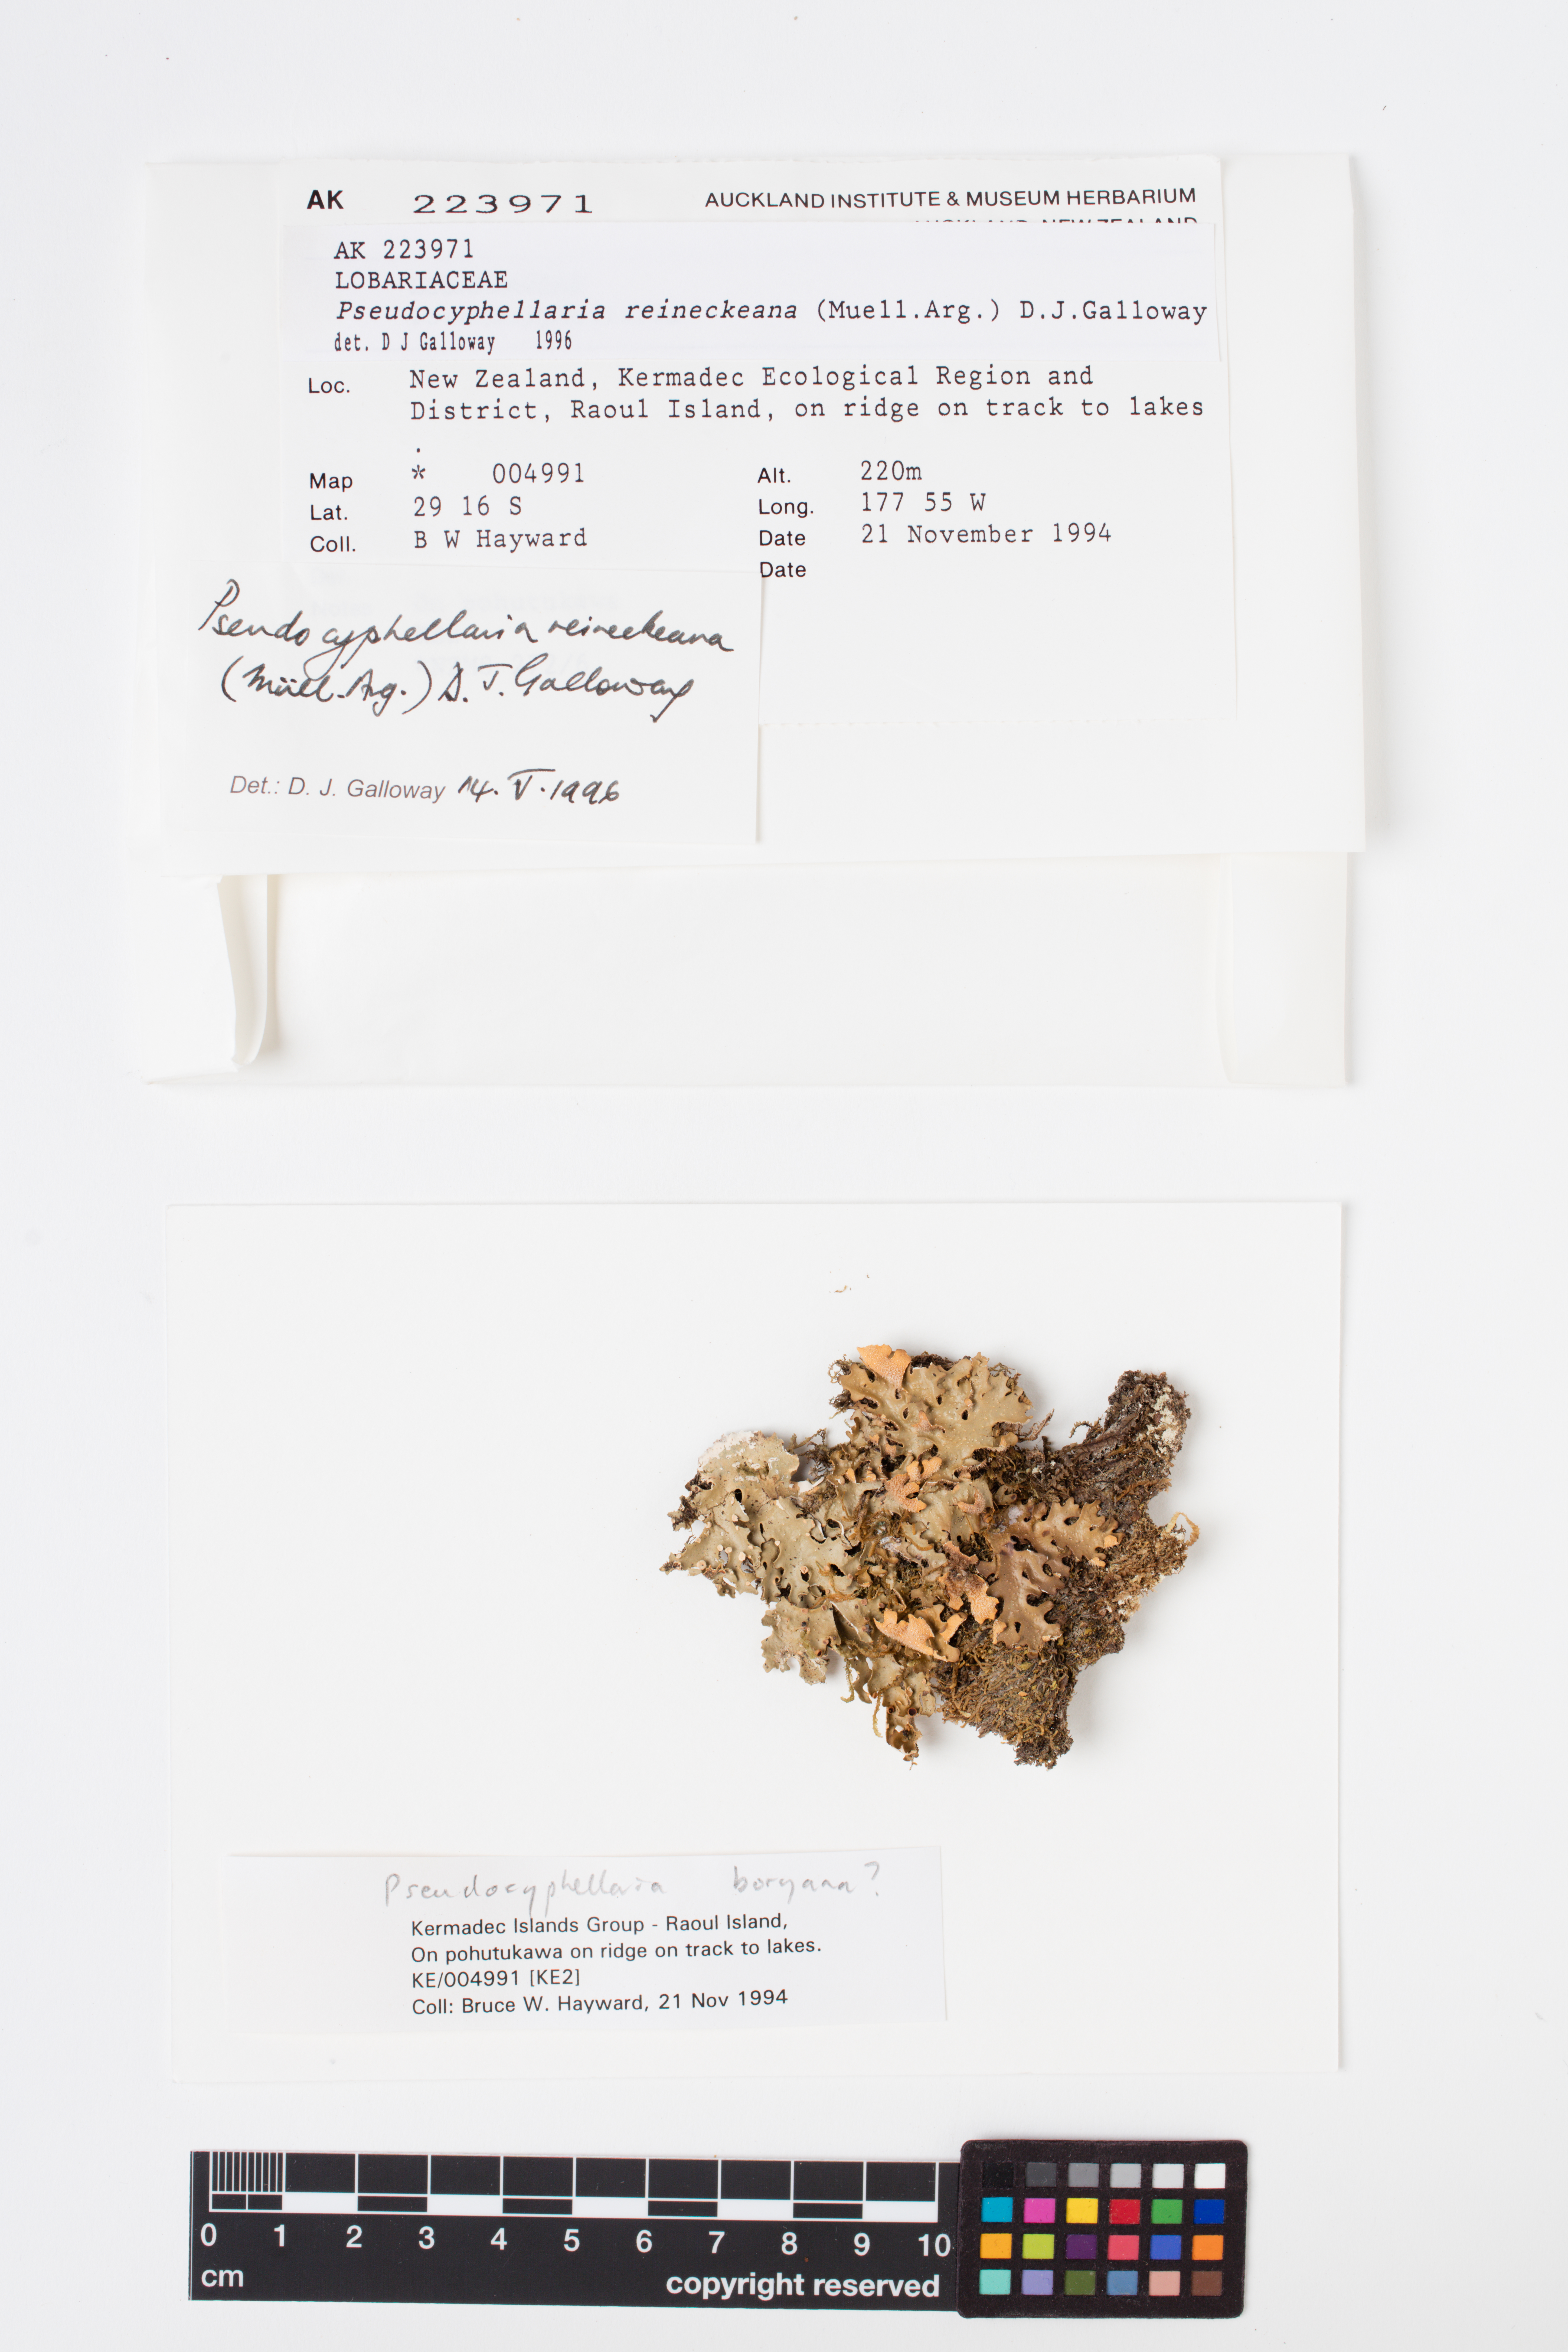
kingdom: Fungi
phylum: Ascomycota
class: Lecanoromycetes
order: Peltigerales
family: Lobariaceae
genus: Pseudocyphellaria
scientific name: Pseudocyphellaria reineckeana
